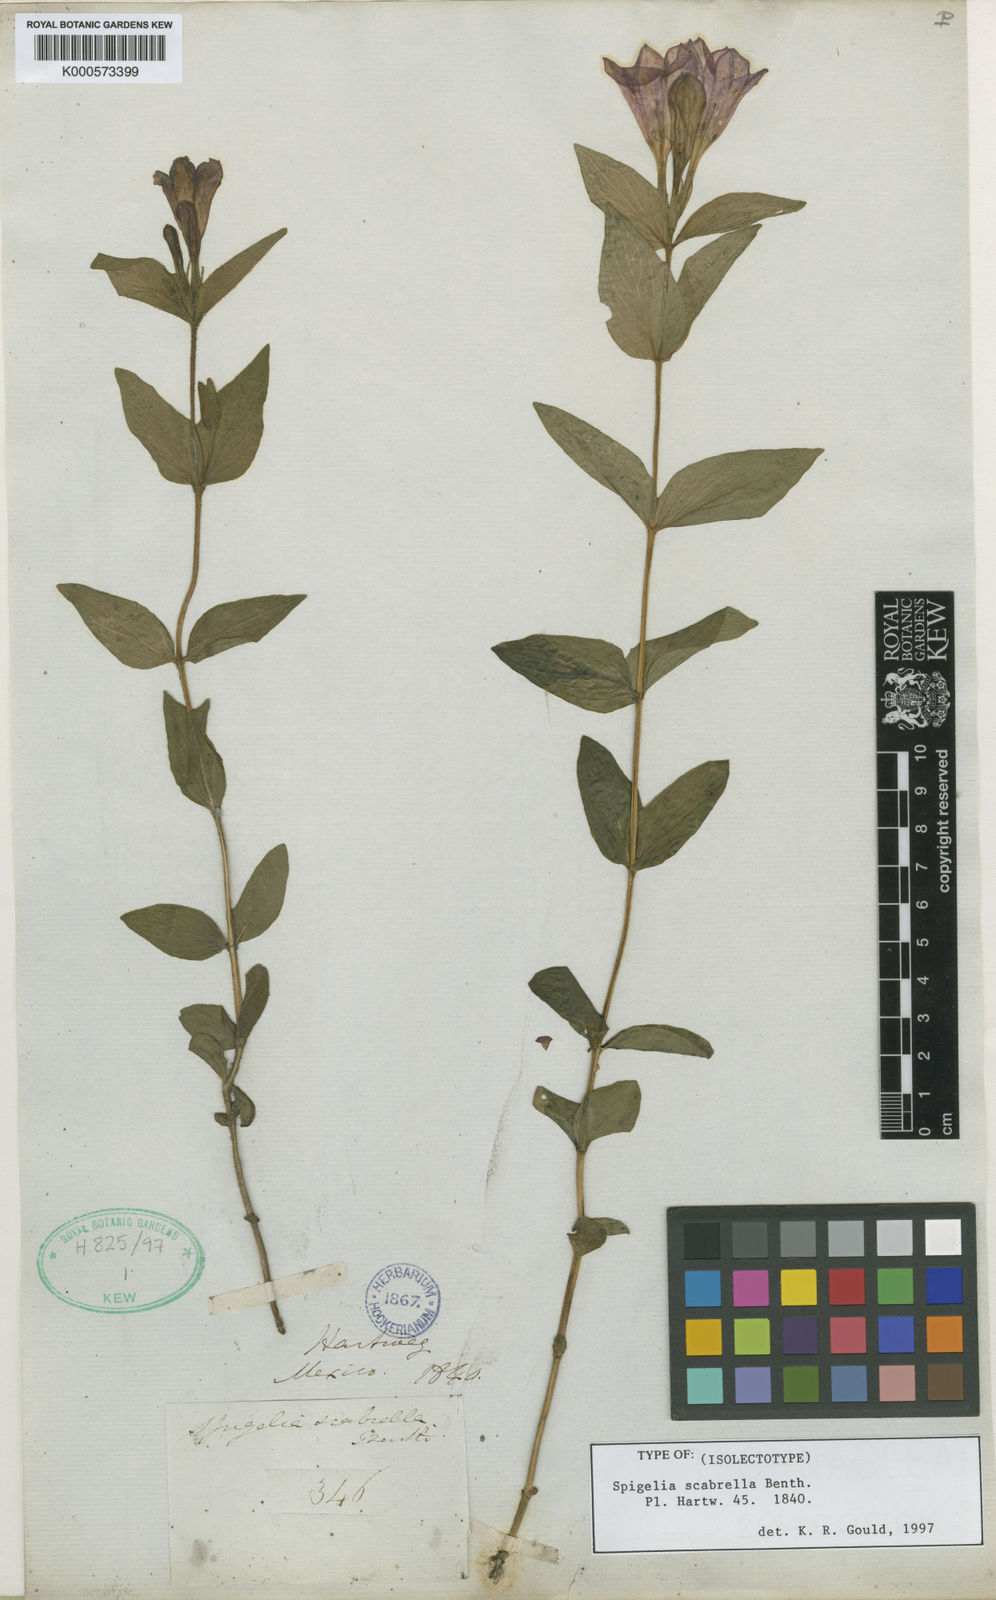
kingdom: Plantae
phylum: Tracheophyta
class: Magnoliopsida
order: Gentianales
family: Loganiaceae
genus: Spigelia
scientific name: Spigelia scabrella
